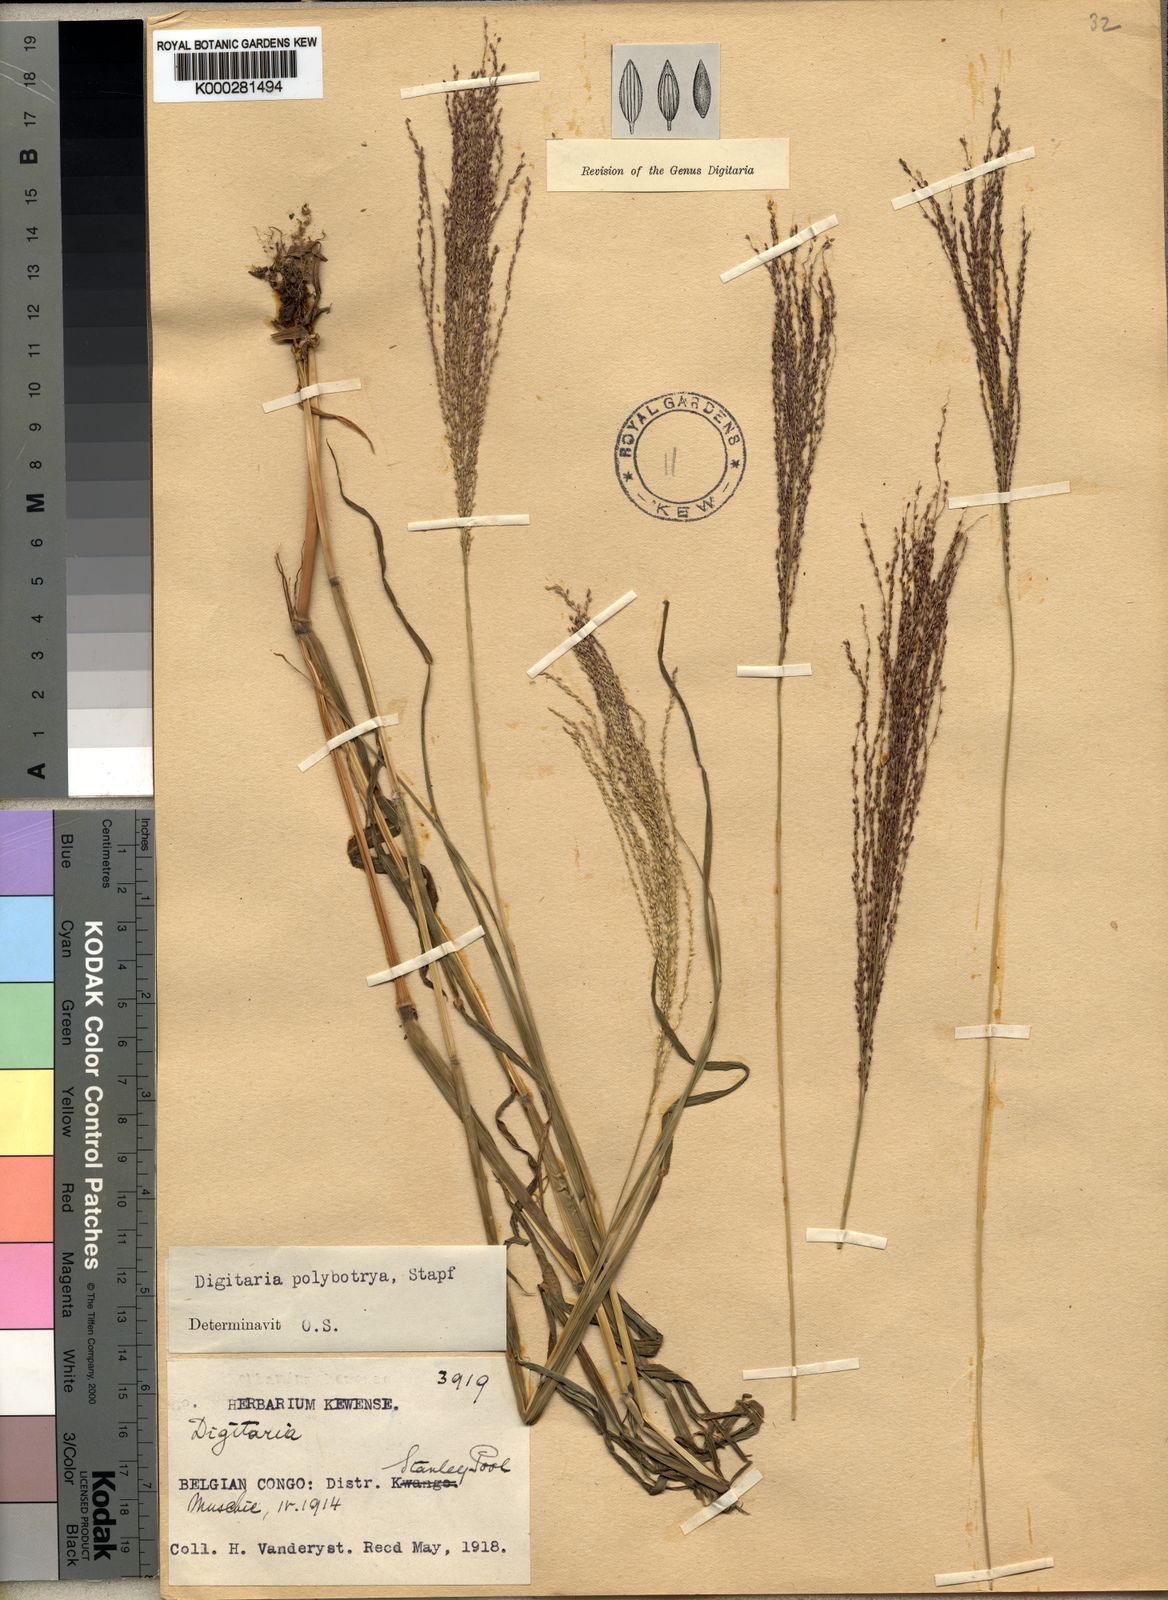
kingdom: Plantae
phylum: Tracheophyta
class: Liliopsida
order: Poales
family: Poaceae
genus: Digitaria
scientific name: Digitaria leptorhachis
